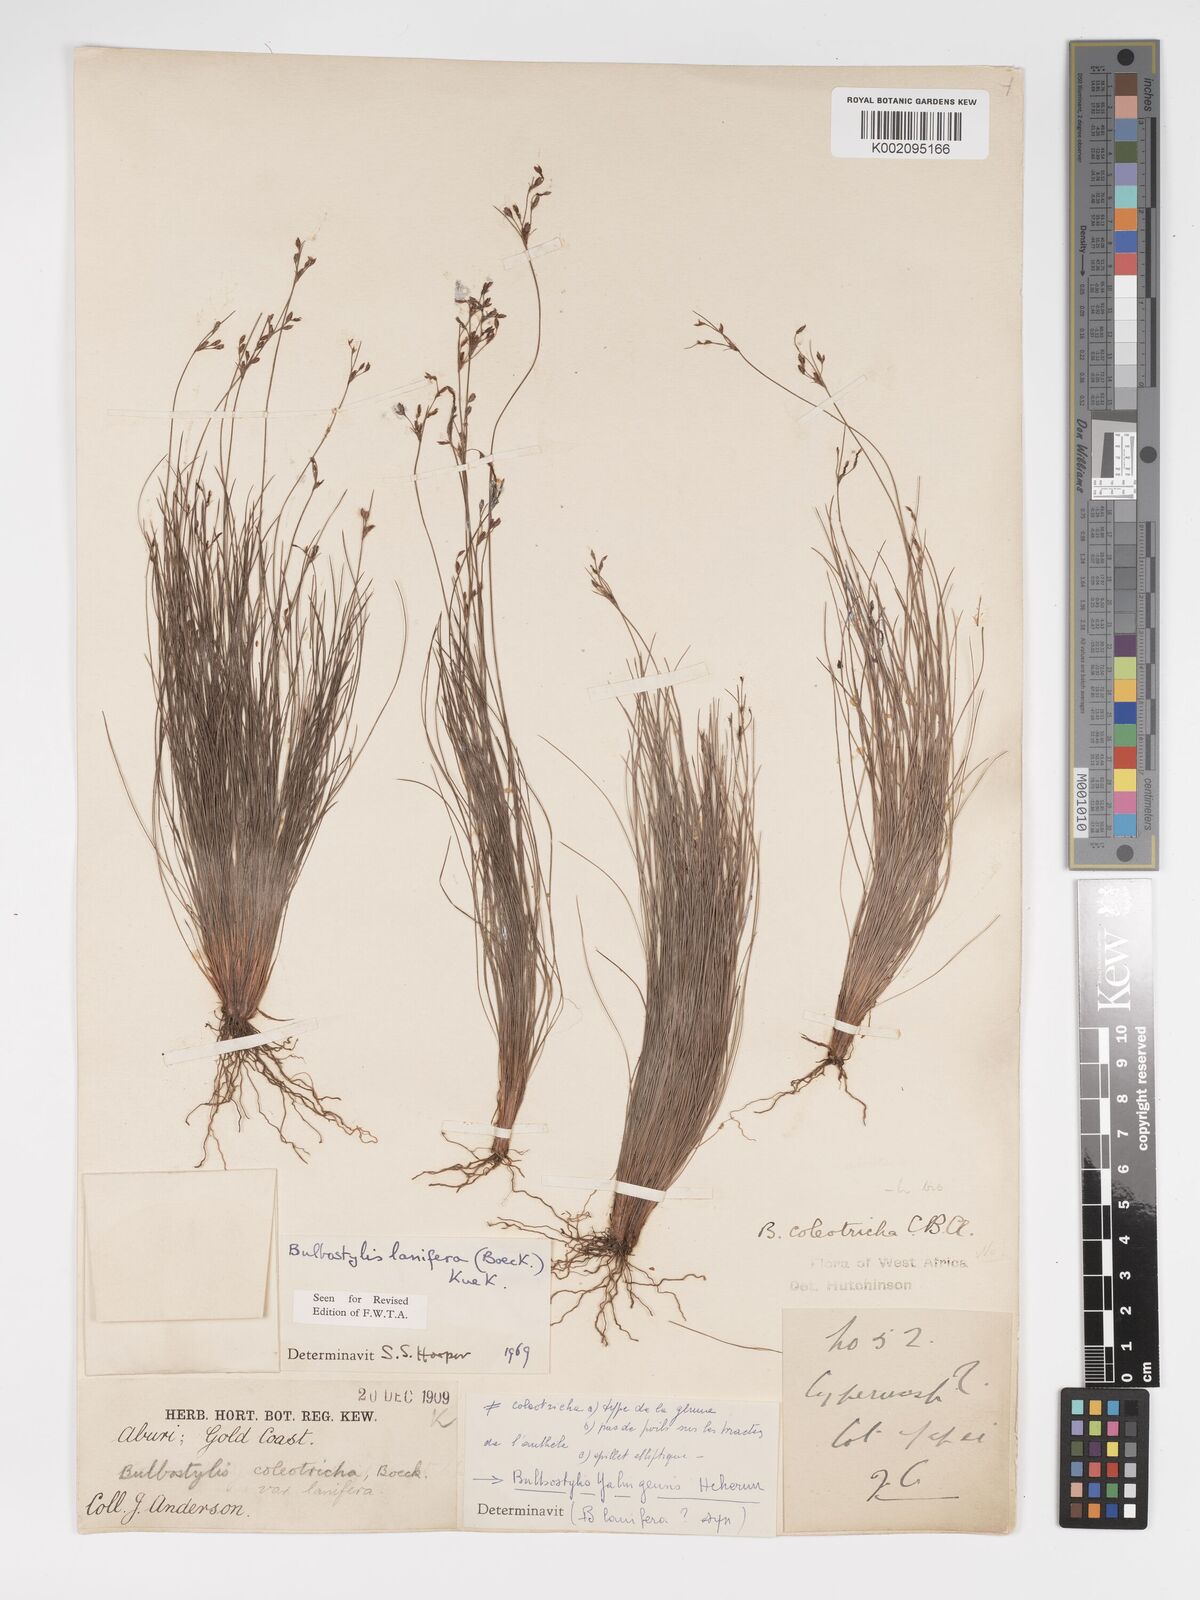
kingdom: Plantae
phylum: Tracheophyta
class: Liliopsida
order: Poales
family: Cyperaceae
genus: Bulbostylis
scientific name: Bulbostylis lanifera
